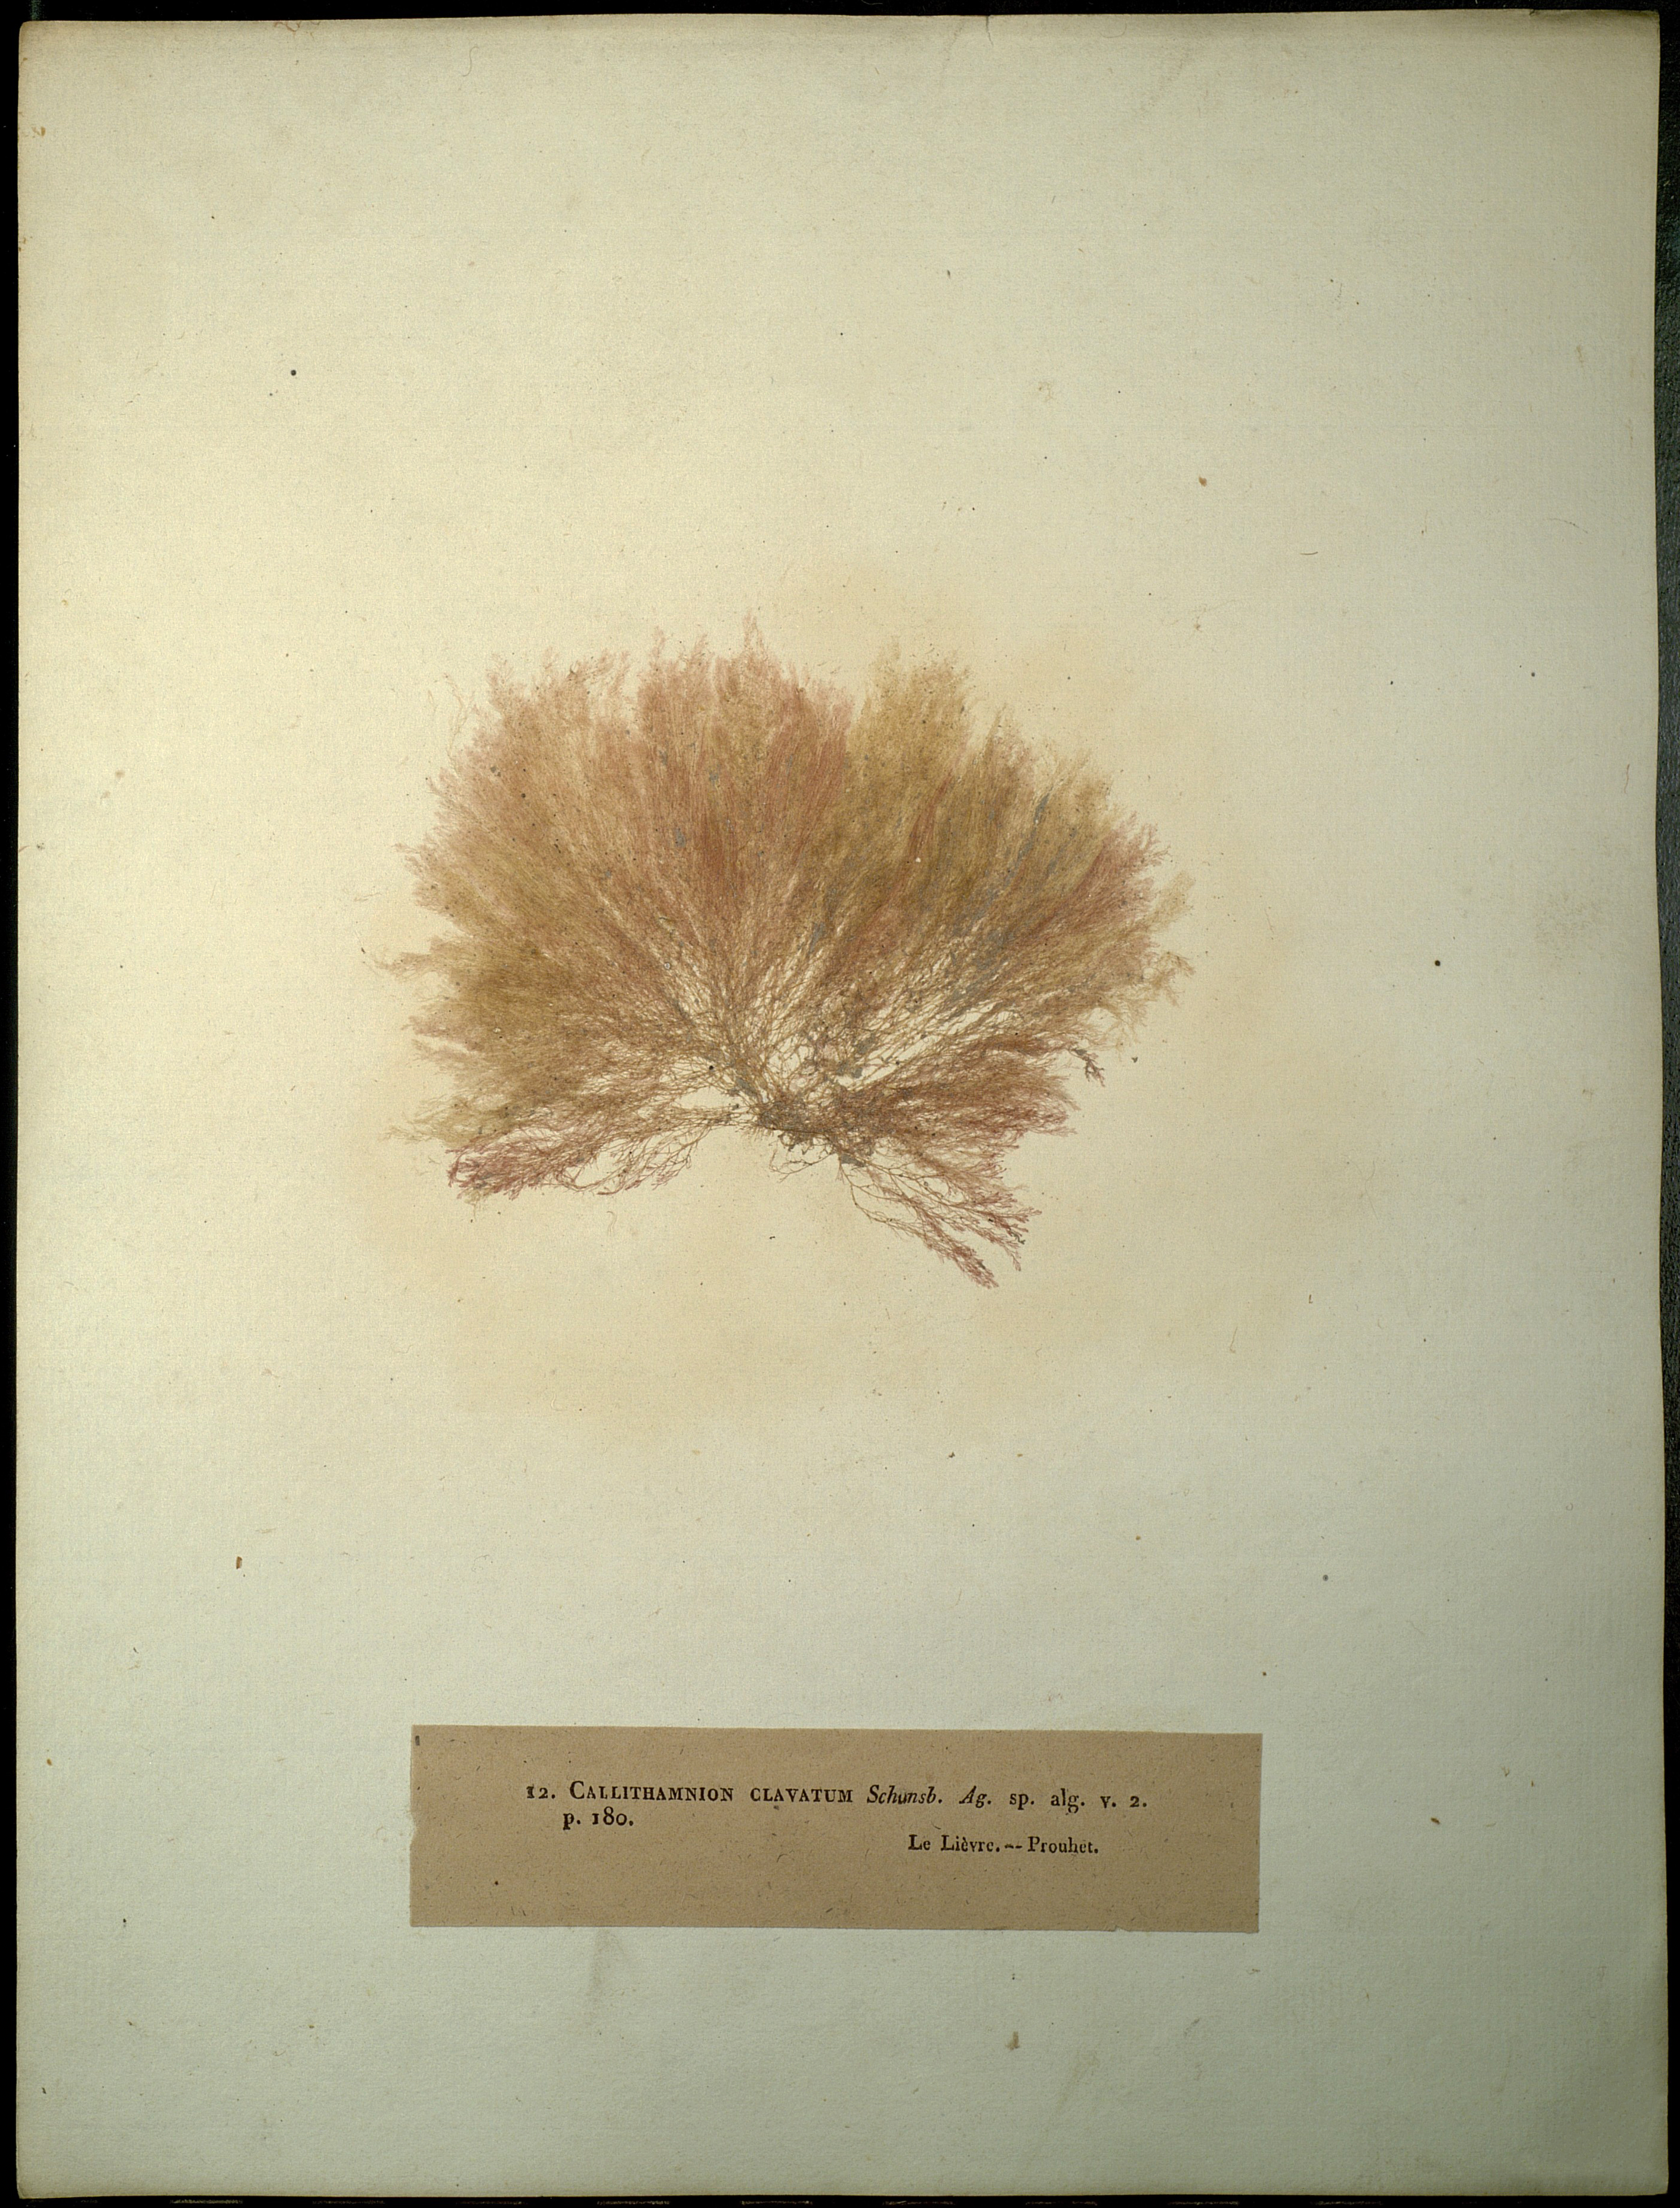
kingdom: Plantae
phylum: Rhodophyta
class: Florideophyceae
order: Ceramiales
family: Wrangeliaceae
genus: Monosporus
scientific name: Monosporus
